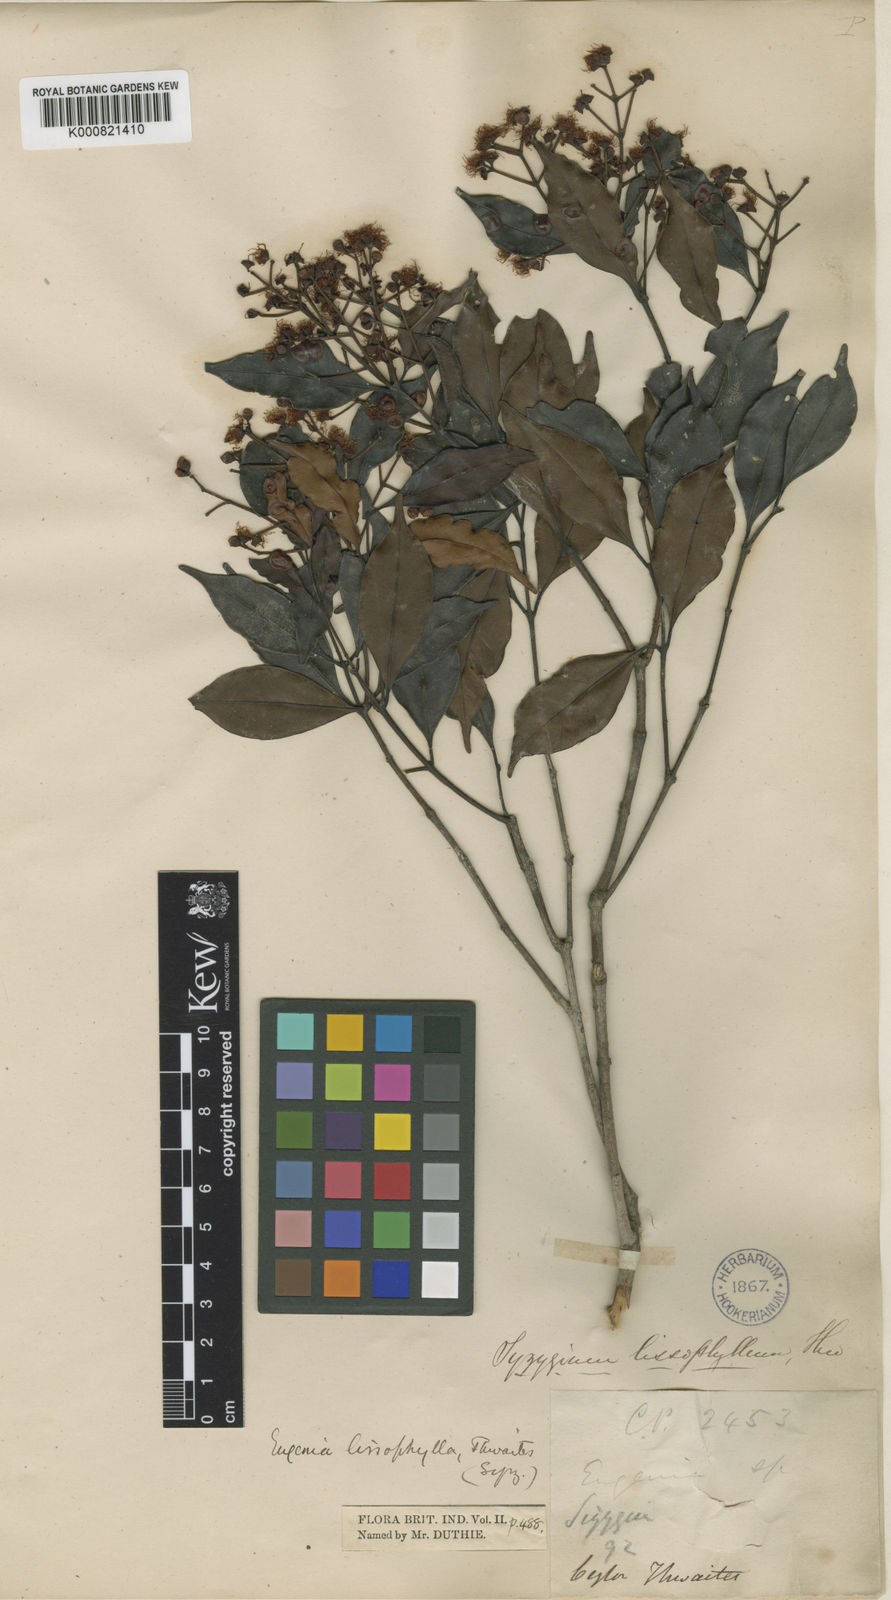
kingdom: Plantae
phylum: Tracheophyta
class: Magnoliopsida
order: Myrtales
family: Myrtaceae
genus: Syzygium
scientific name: Syzygium rubicundum
